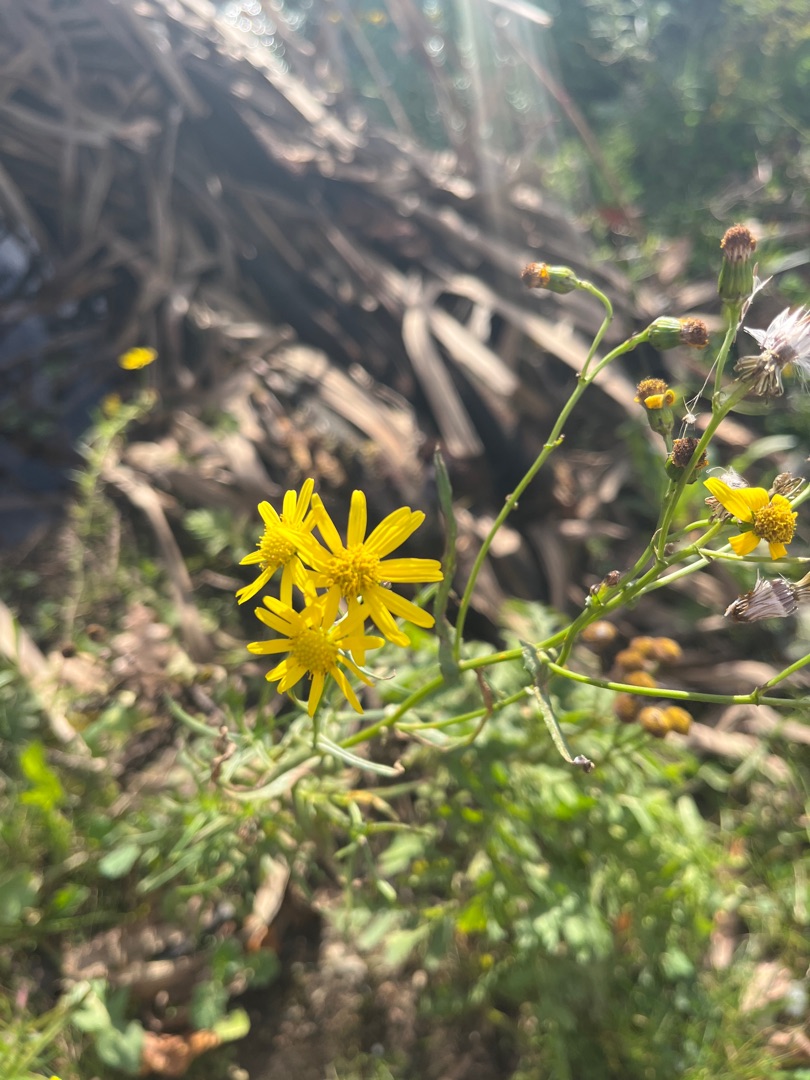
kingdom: Plantae
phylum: Tracheophyta
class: Magnoliopsida
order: Asterales
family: Asteraceae
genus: Senecio
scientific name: Senecio inaequidens
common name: Smalbladet brandbæger
